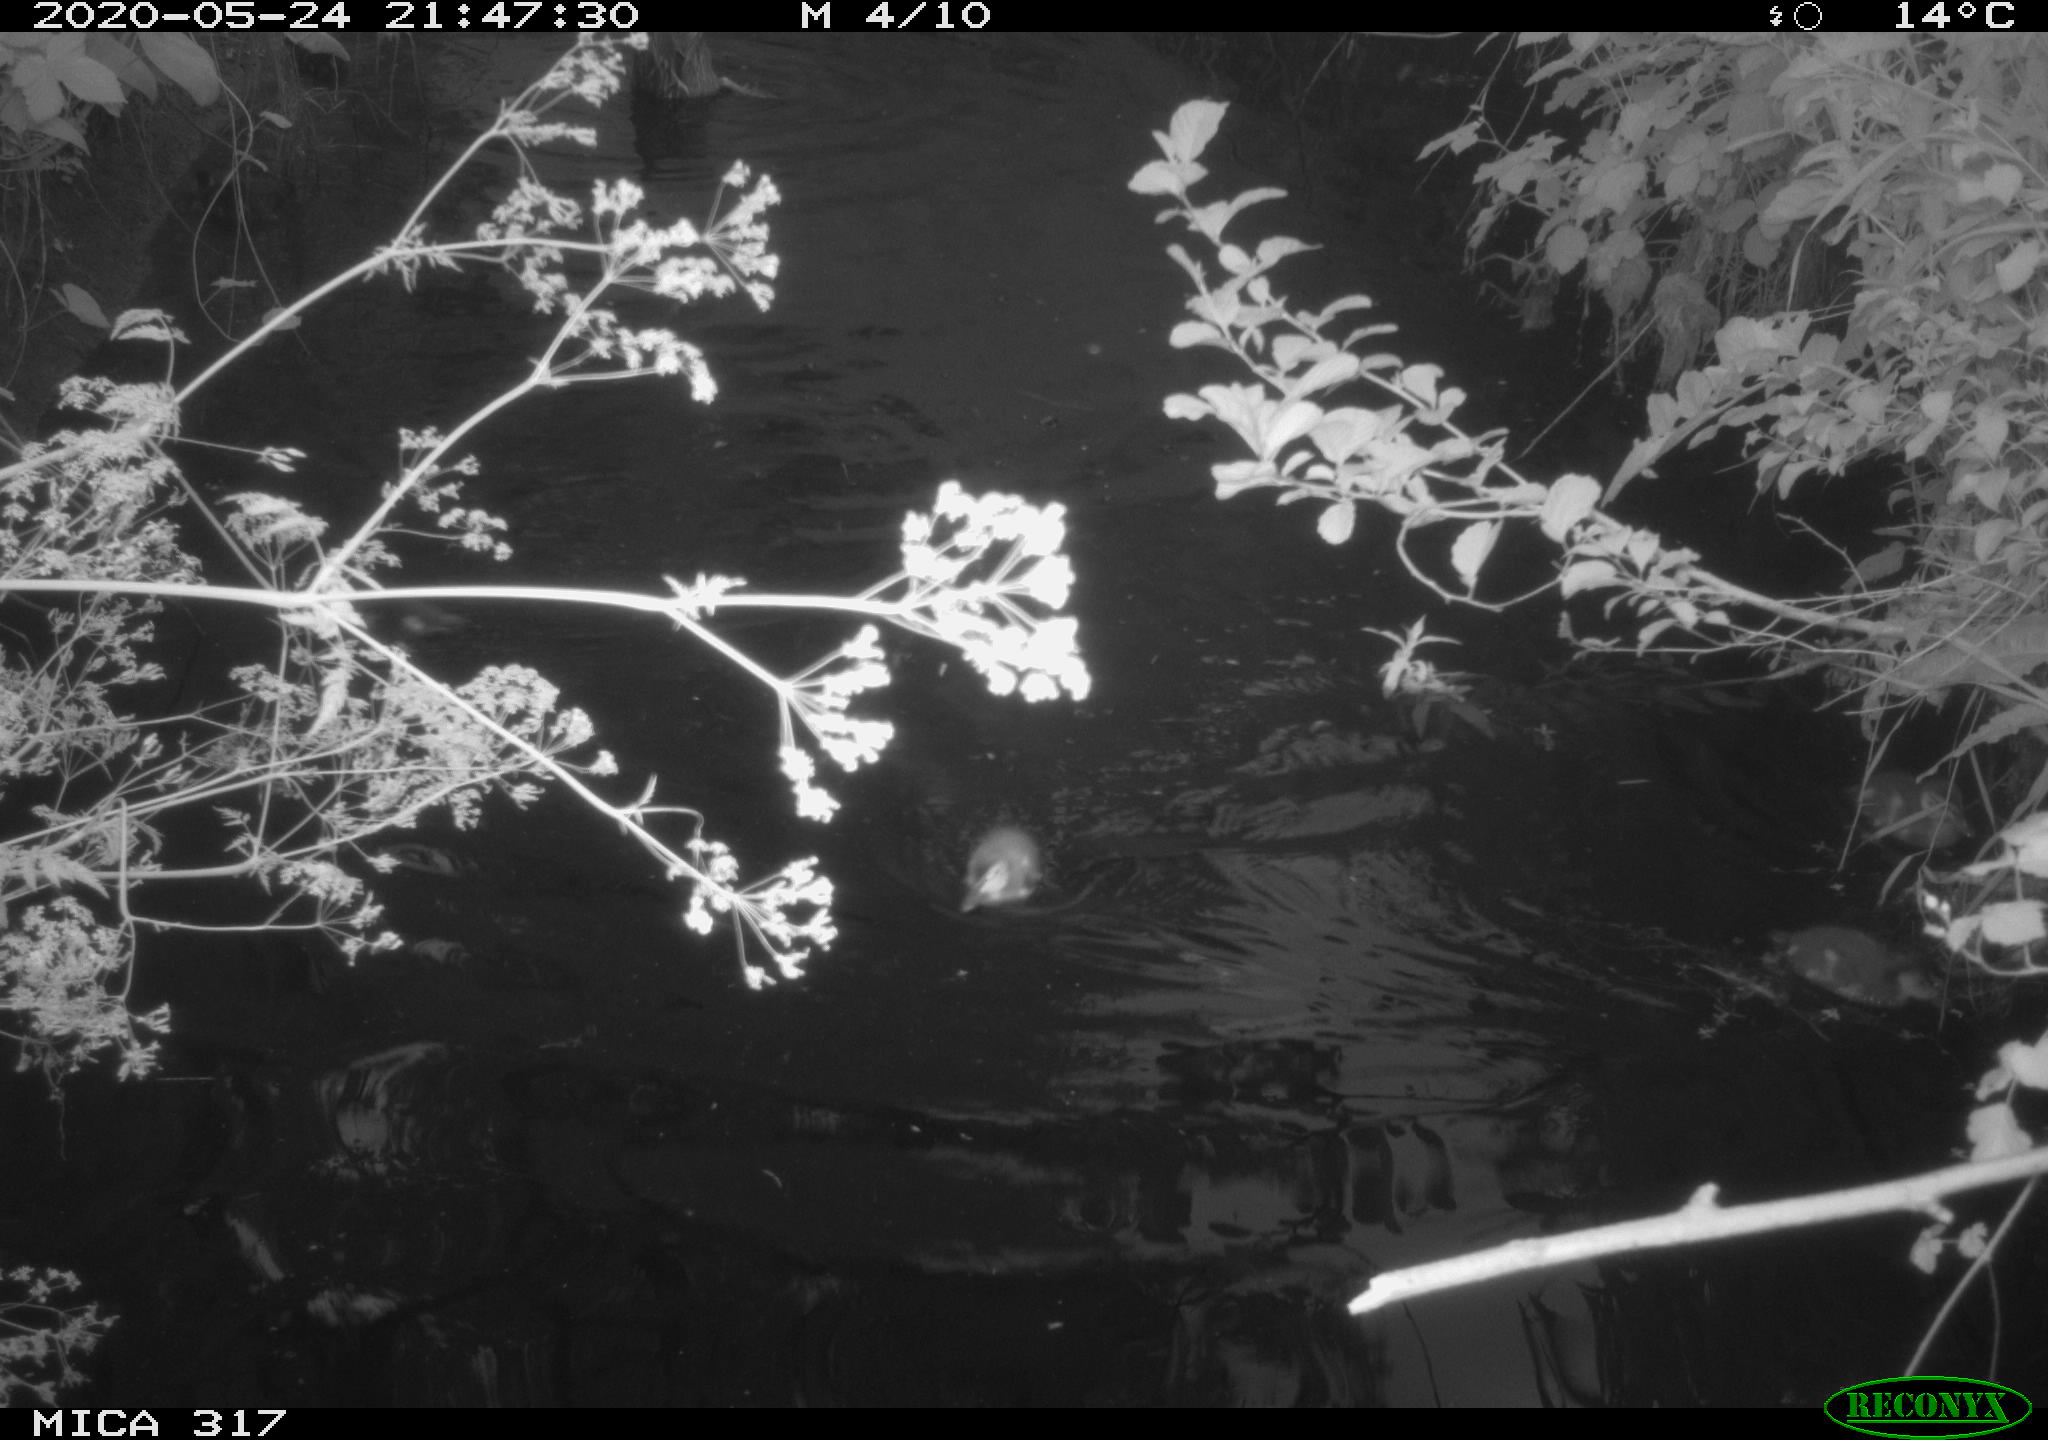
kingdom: Animalia
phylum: Chordata
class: Aves
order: Anseriformes
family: Anatidae
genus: Anas
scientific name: Anas platyrhynchos
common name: Mallard
